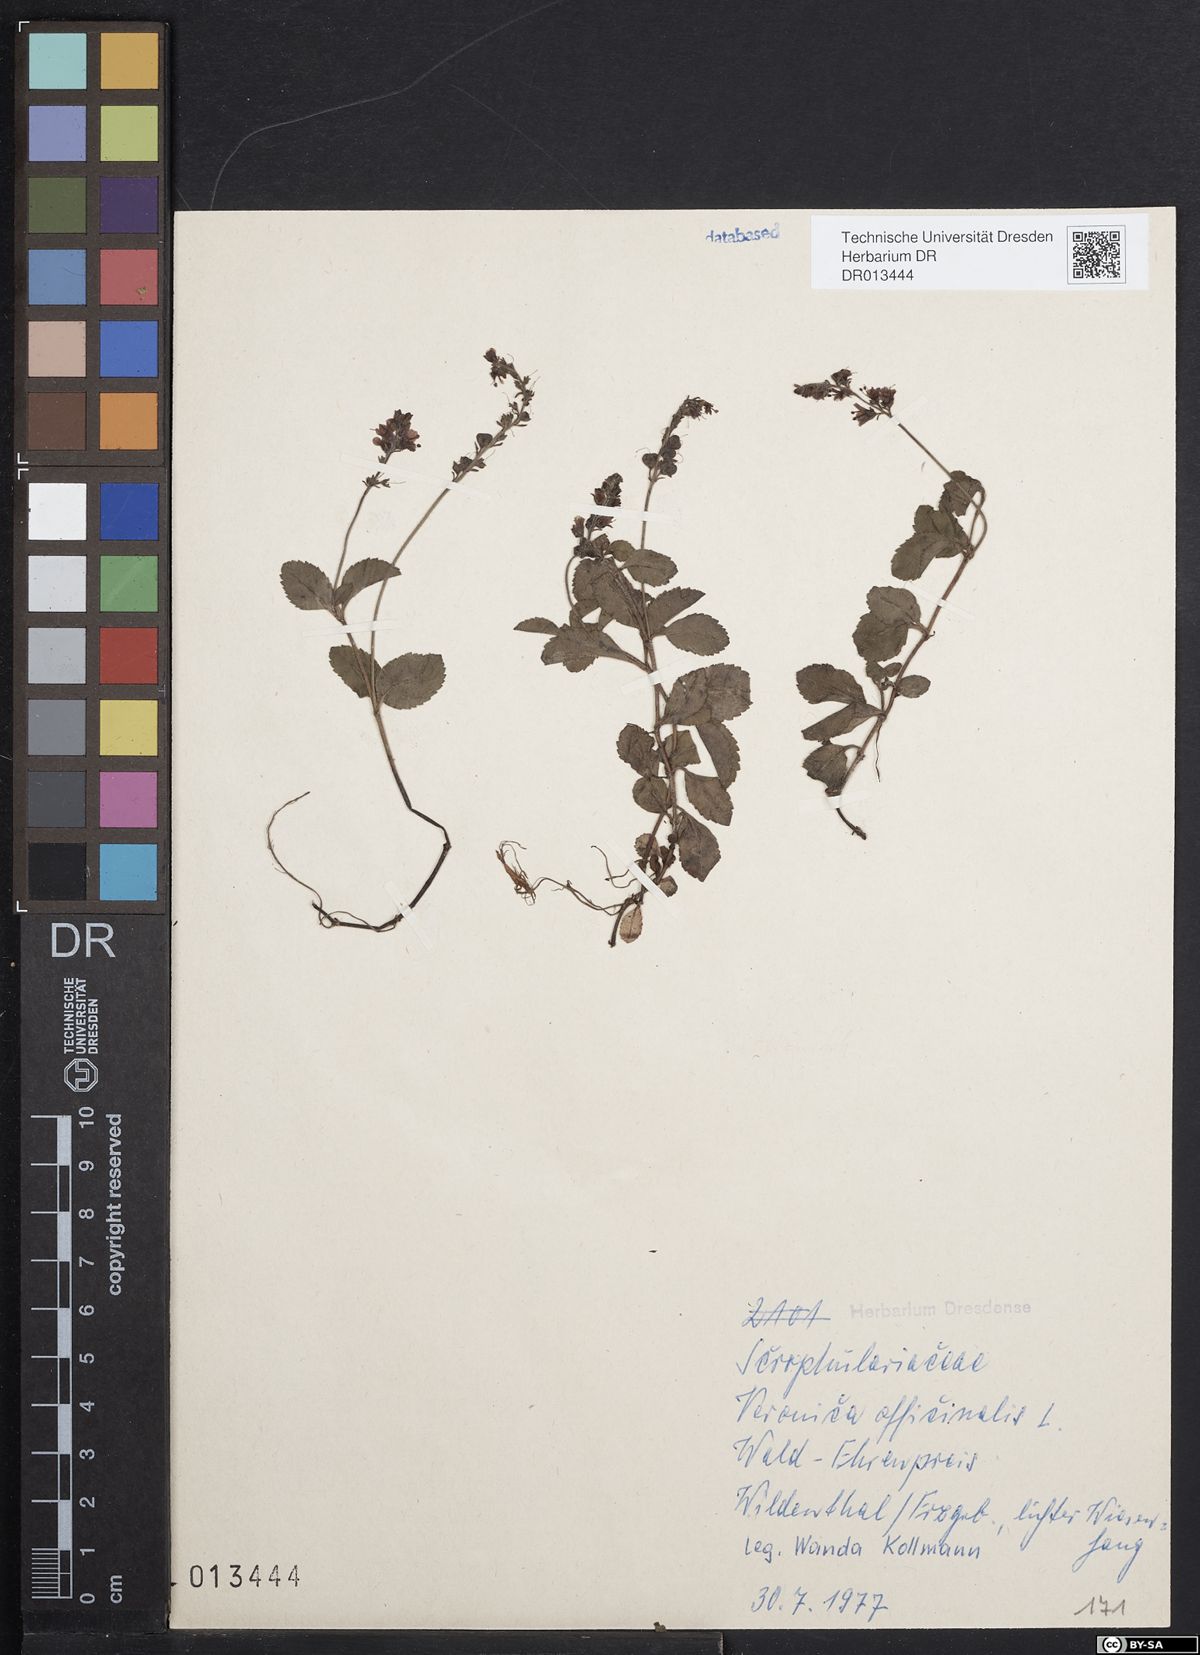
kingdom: Plantae
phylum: Tracheophyta
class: Magnoliopsida
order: Lamiales
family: Plantaginaceae
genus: Veronica
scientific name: Veronica officinalis
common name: Common speedwell
